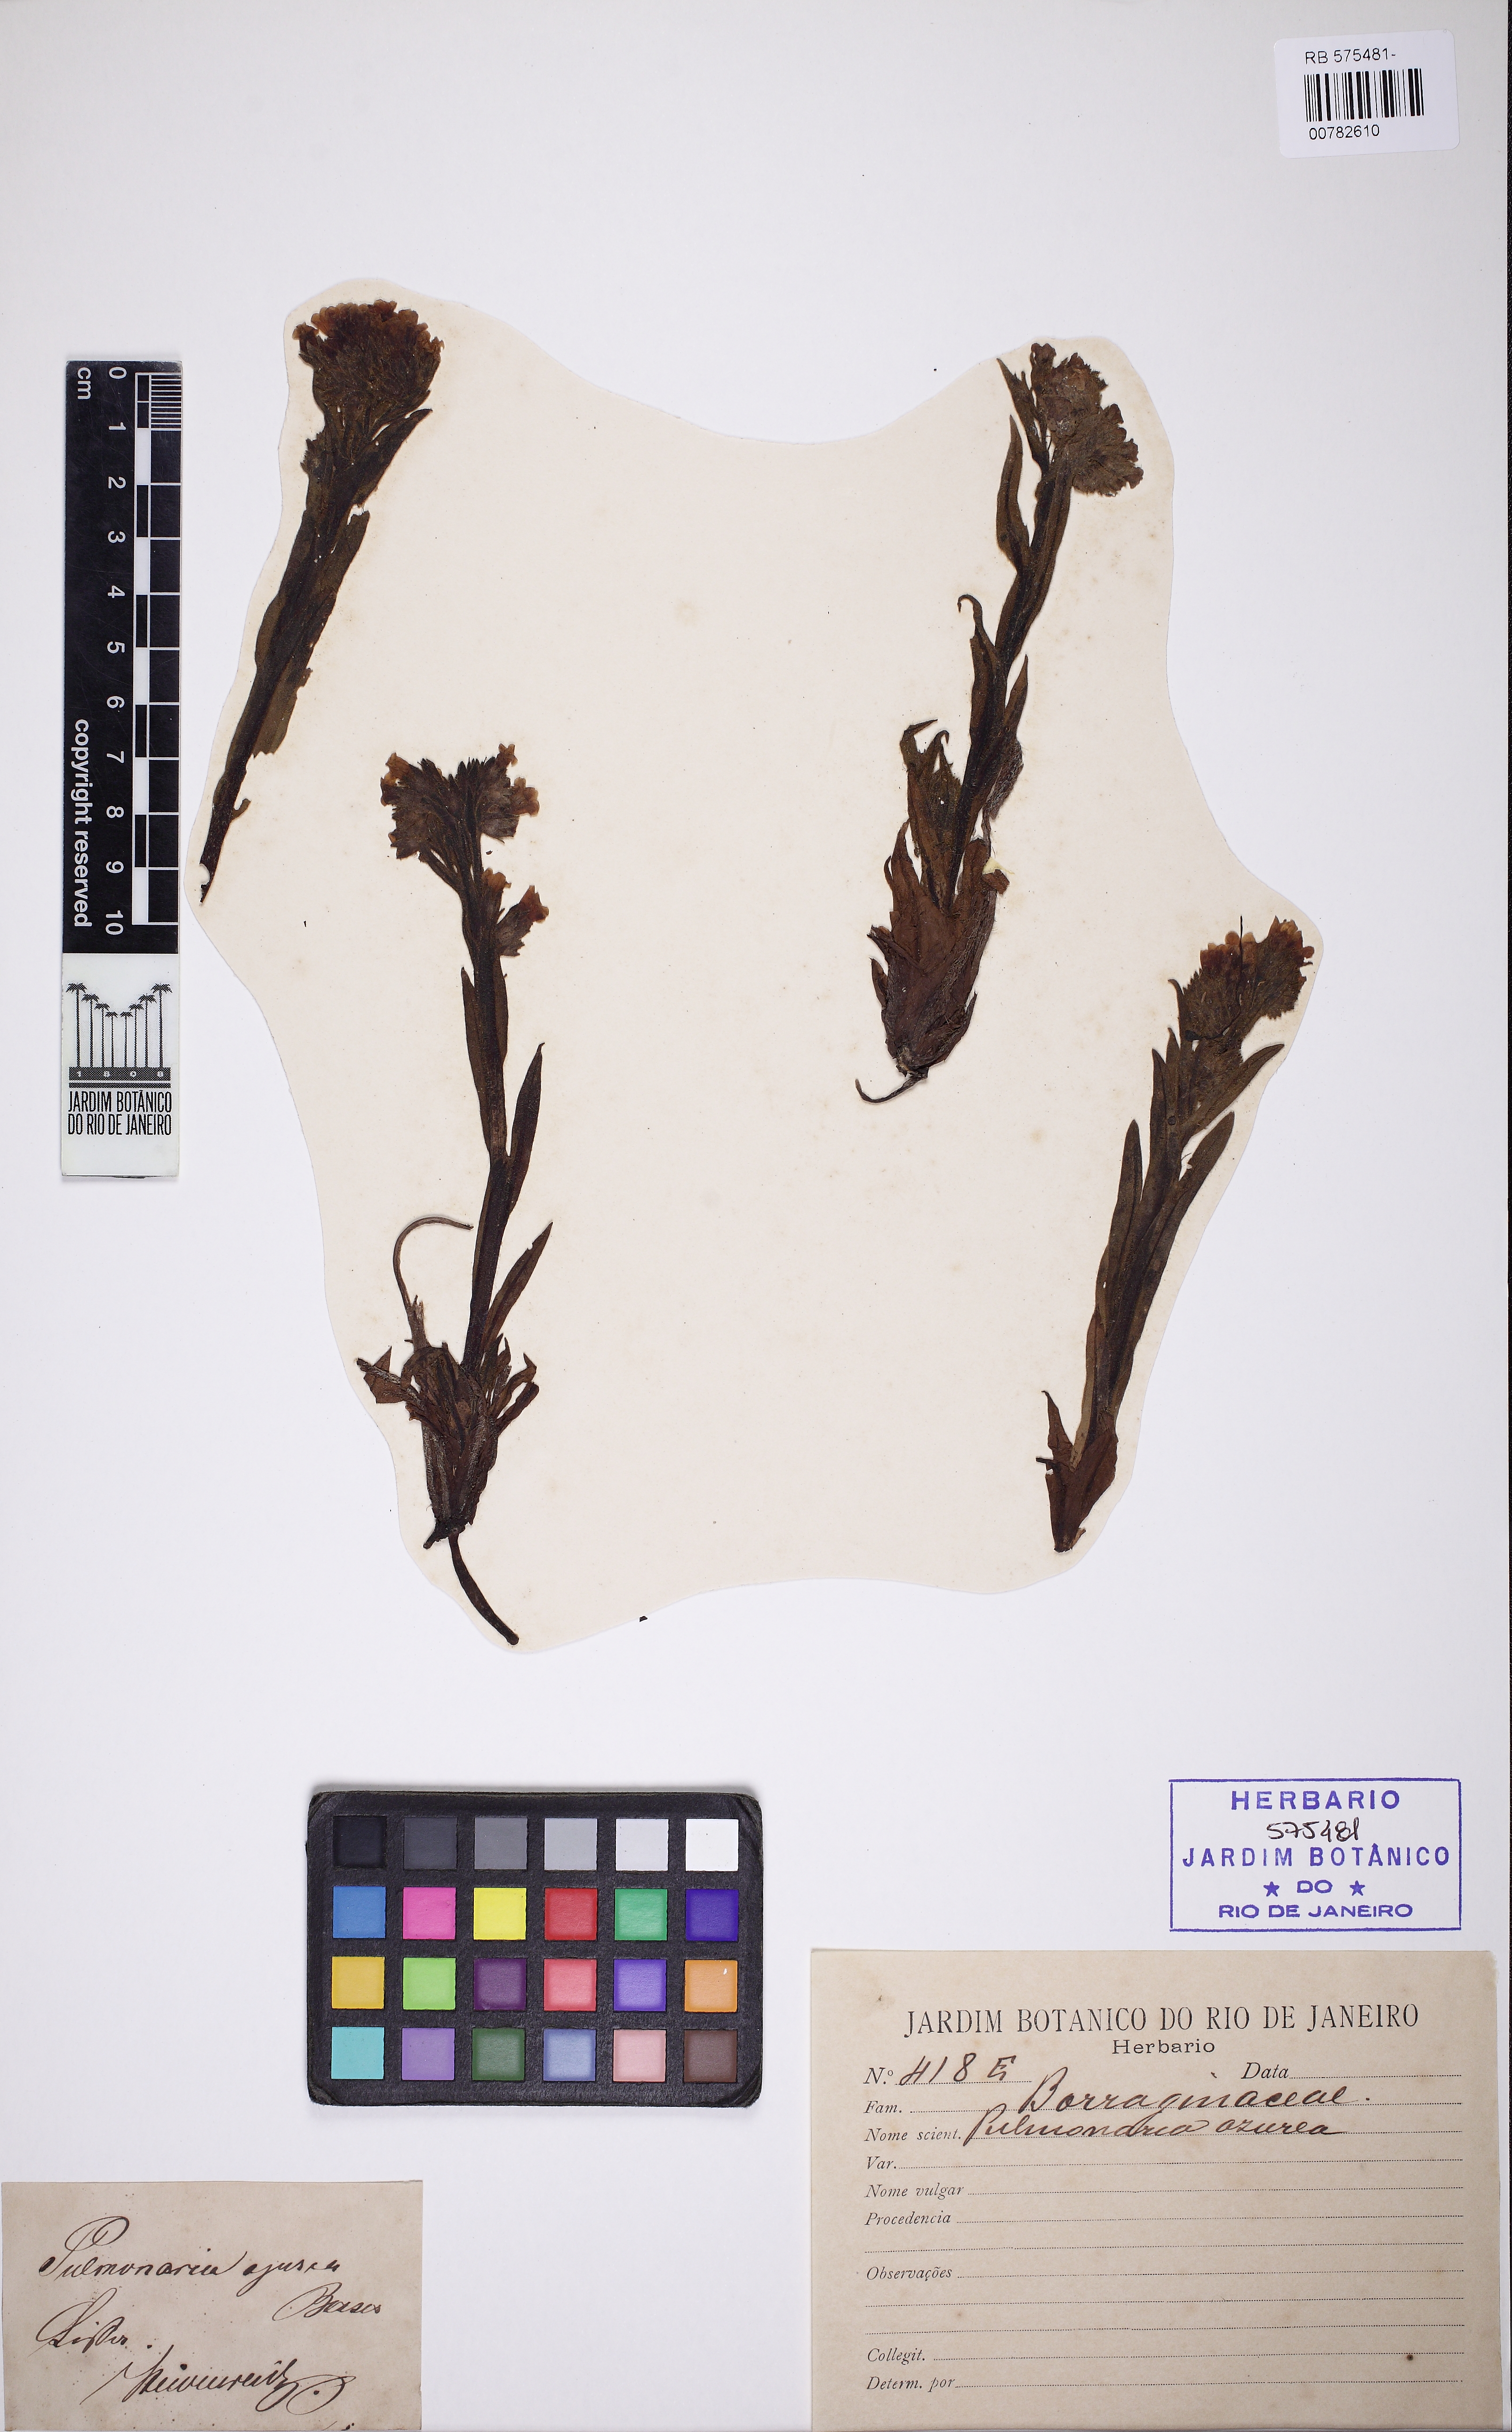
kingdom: Plantae
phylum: Tracheophyta
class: Magnoliopsida
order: Boraginales
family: Boraginaceae
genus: Pulmonaria
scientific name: Pulmonaria angustifolia
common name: Blue cowslip
